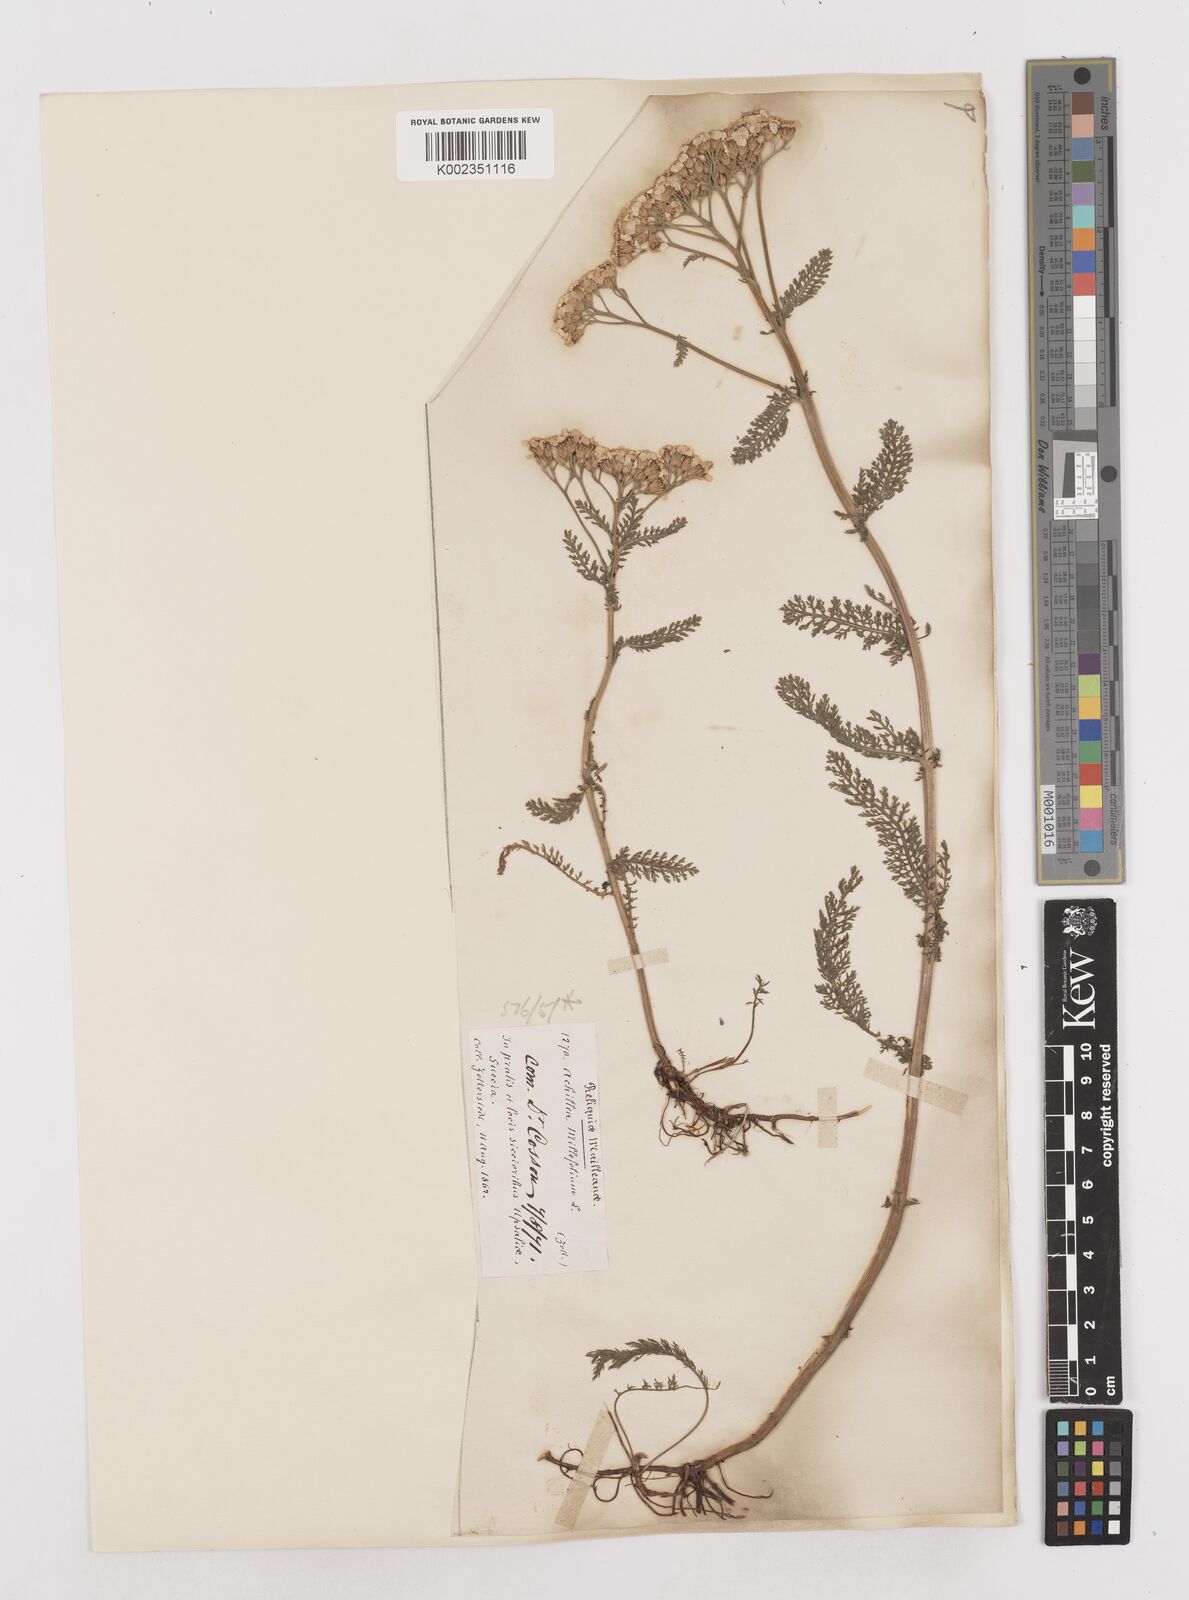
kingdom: Plantae
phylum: Tracheophyta
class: Magnoliopsida
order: Asterales
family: Asteraceae
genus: Achillea
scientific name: Achillea millefolium
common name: Yarrow
